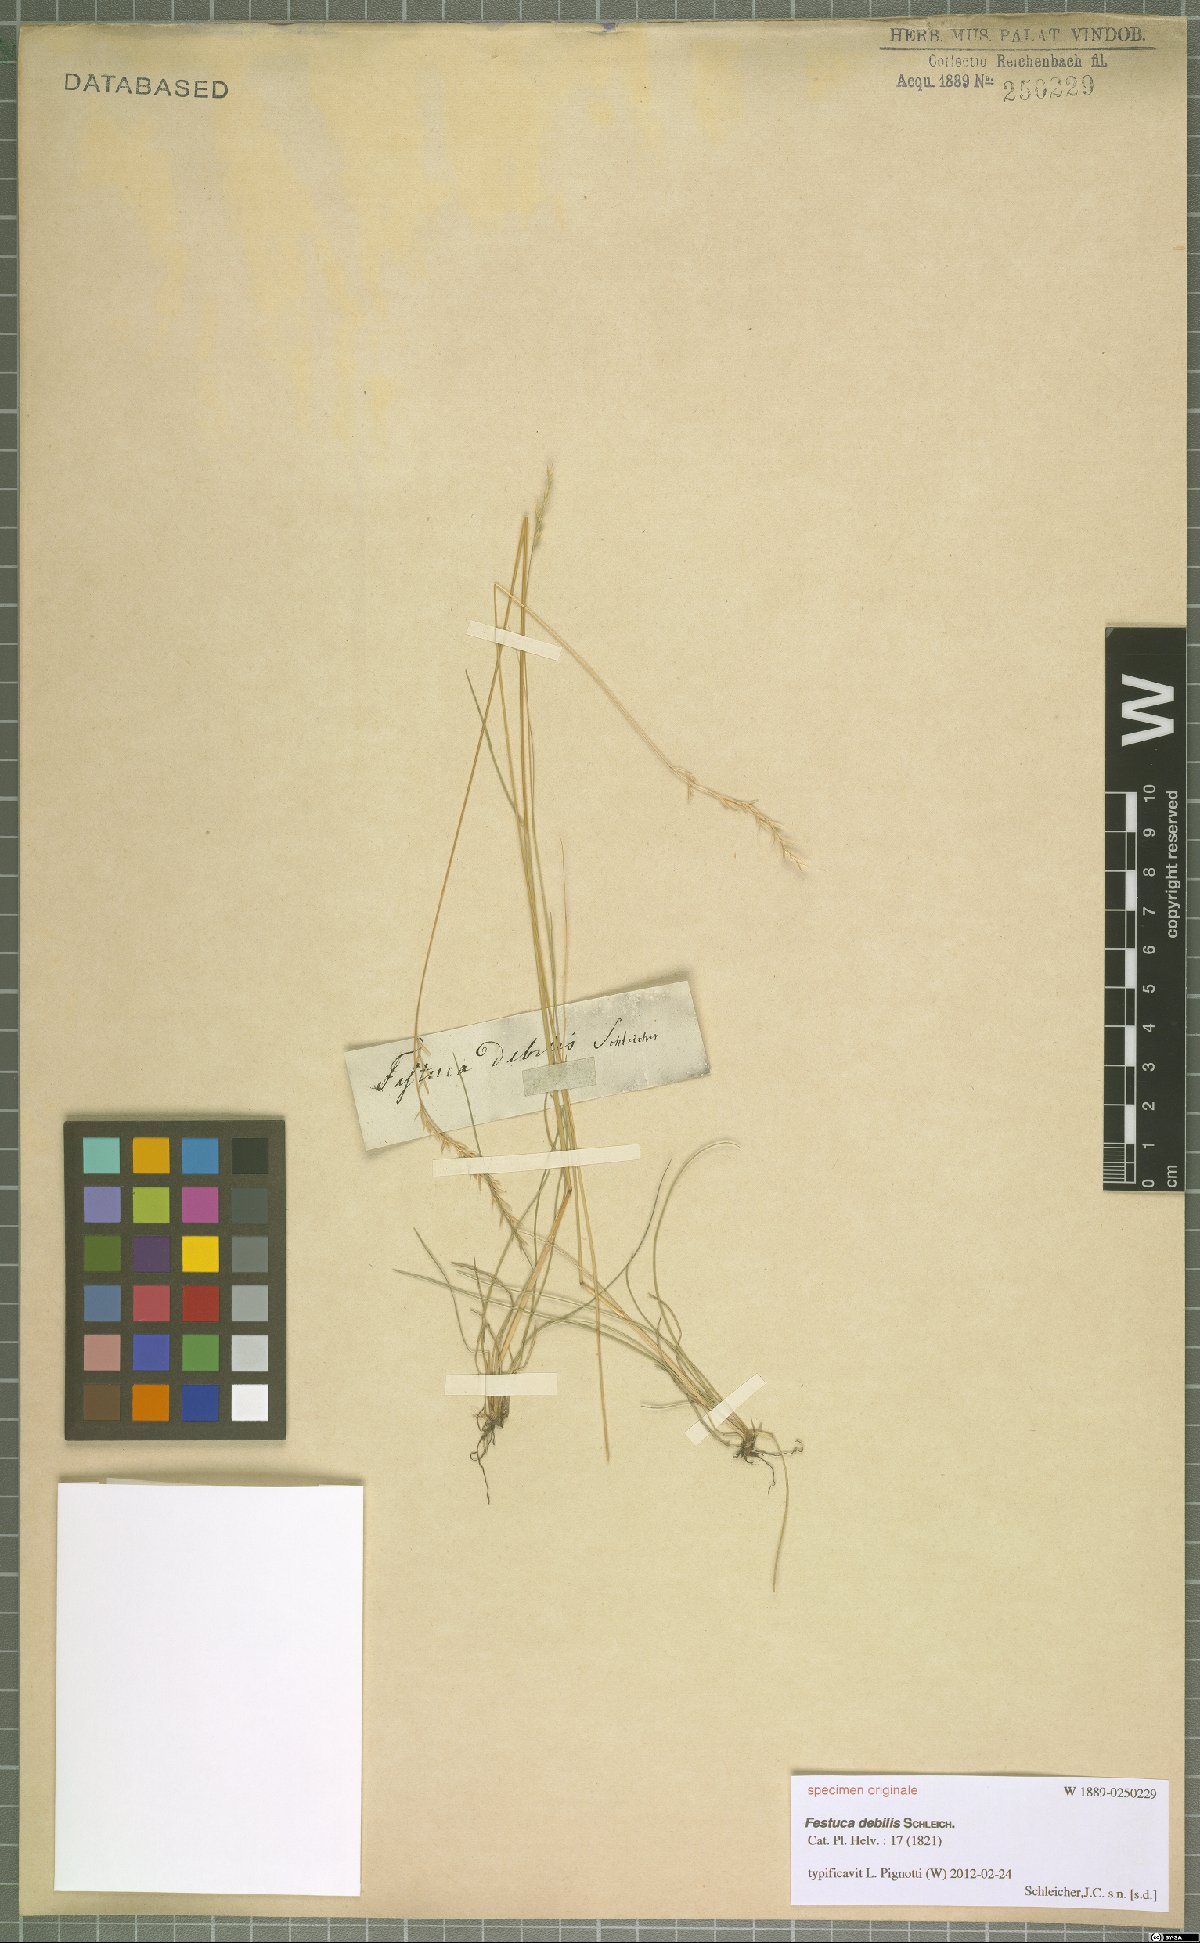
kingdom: Plantae
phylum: Tracheophyta
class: Liliopsida
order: Poales
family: Poaceae
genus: Festuca
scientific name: Festuca debilis
